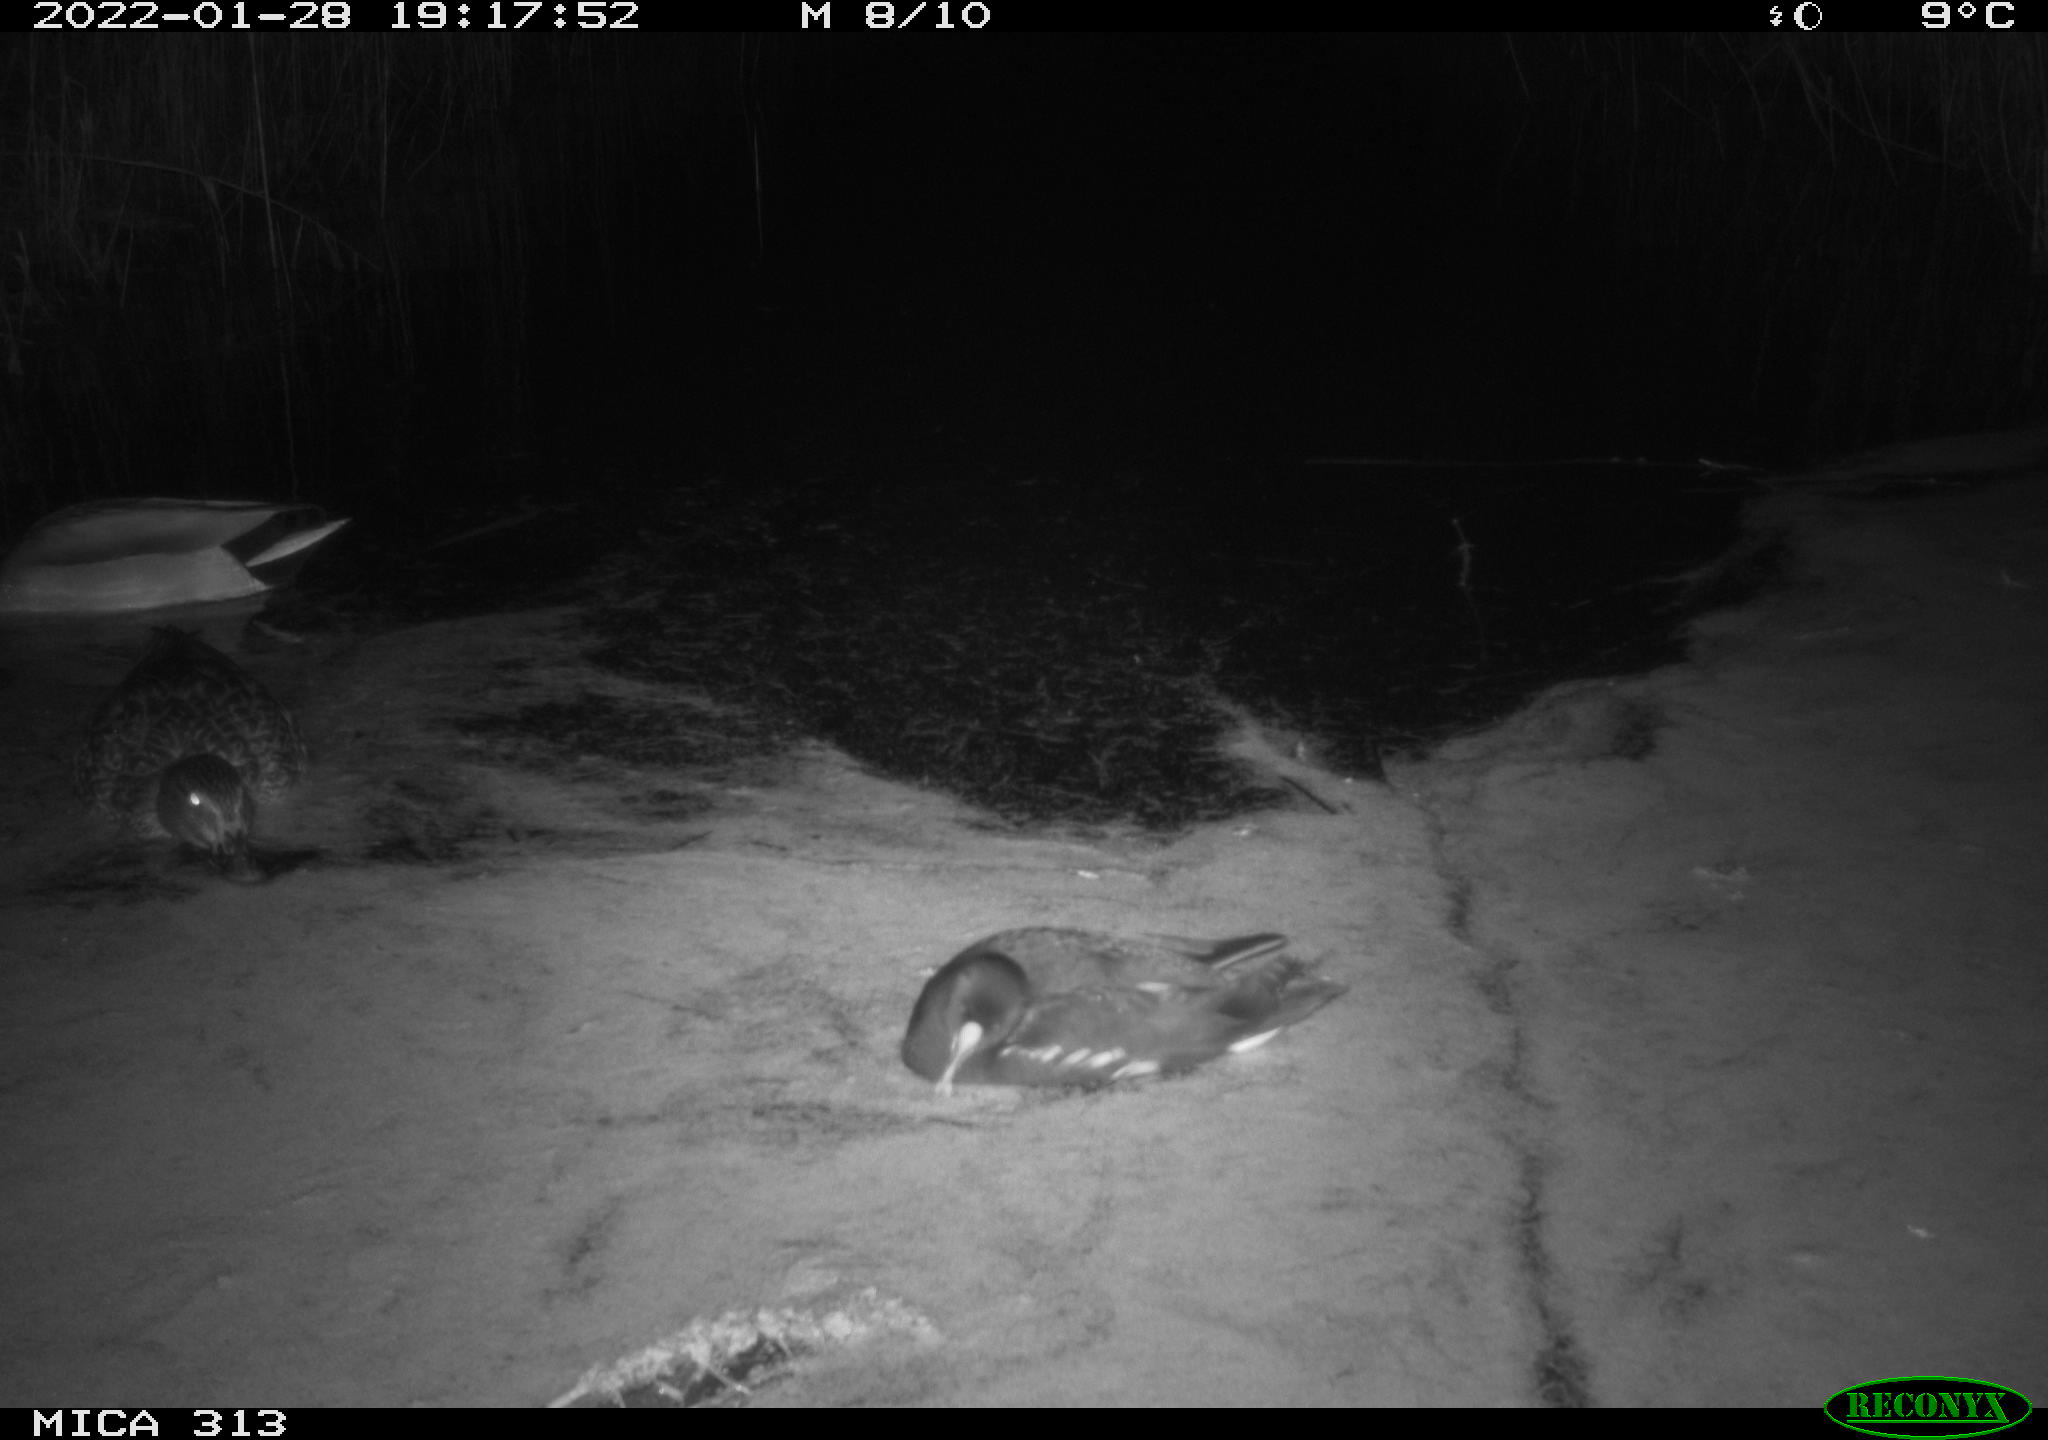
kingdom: Animalia
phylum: Chordata
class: Aves
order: Gruiformes
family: Rallidae
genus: Fulica
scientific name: Fulica atra
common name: Eurasian coot
